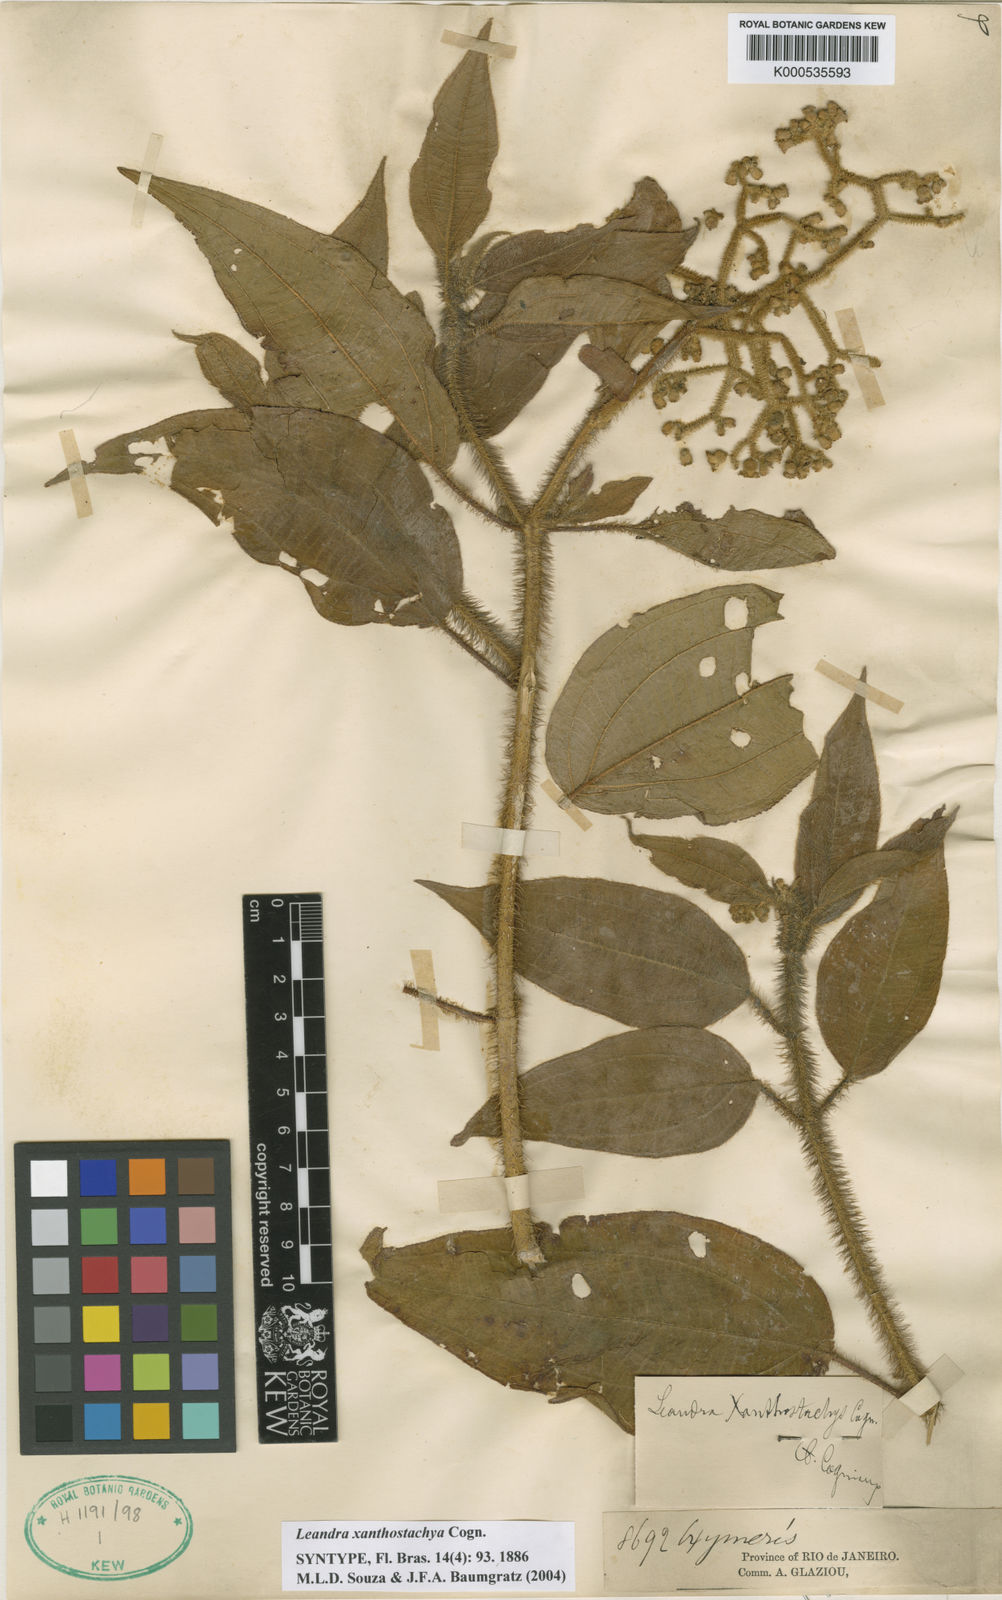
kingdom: Plantae
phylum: Tracheophyta
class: Magnoliopsida
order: Myrtales
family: Melastomataceae
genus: Miconia
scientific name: Miconia xanthostachya
